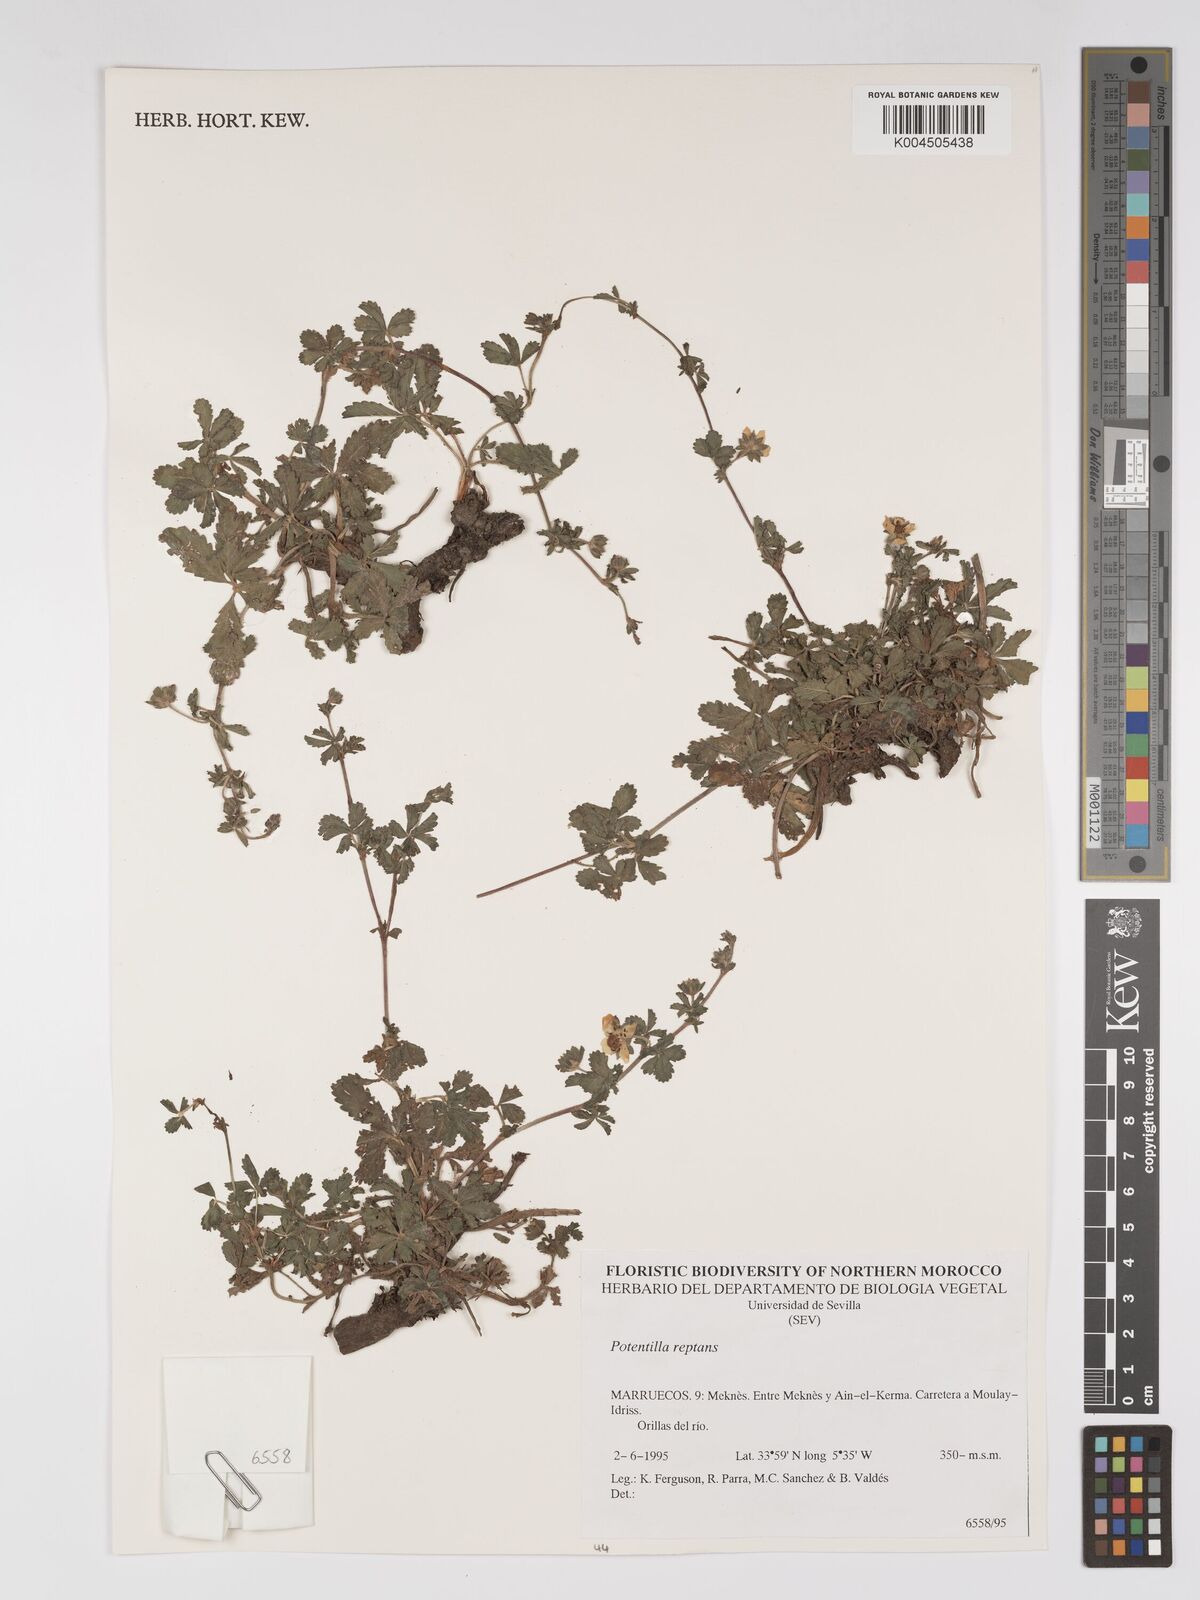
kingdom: Plantae
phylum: Tracheophyta
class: Magnoliopsida
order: Rosales
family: Rosaceae
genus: Potentilla
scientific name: Potentilla reptans
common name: Creeping cinquefoil
